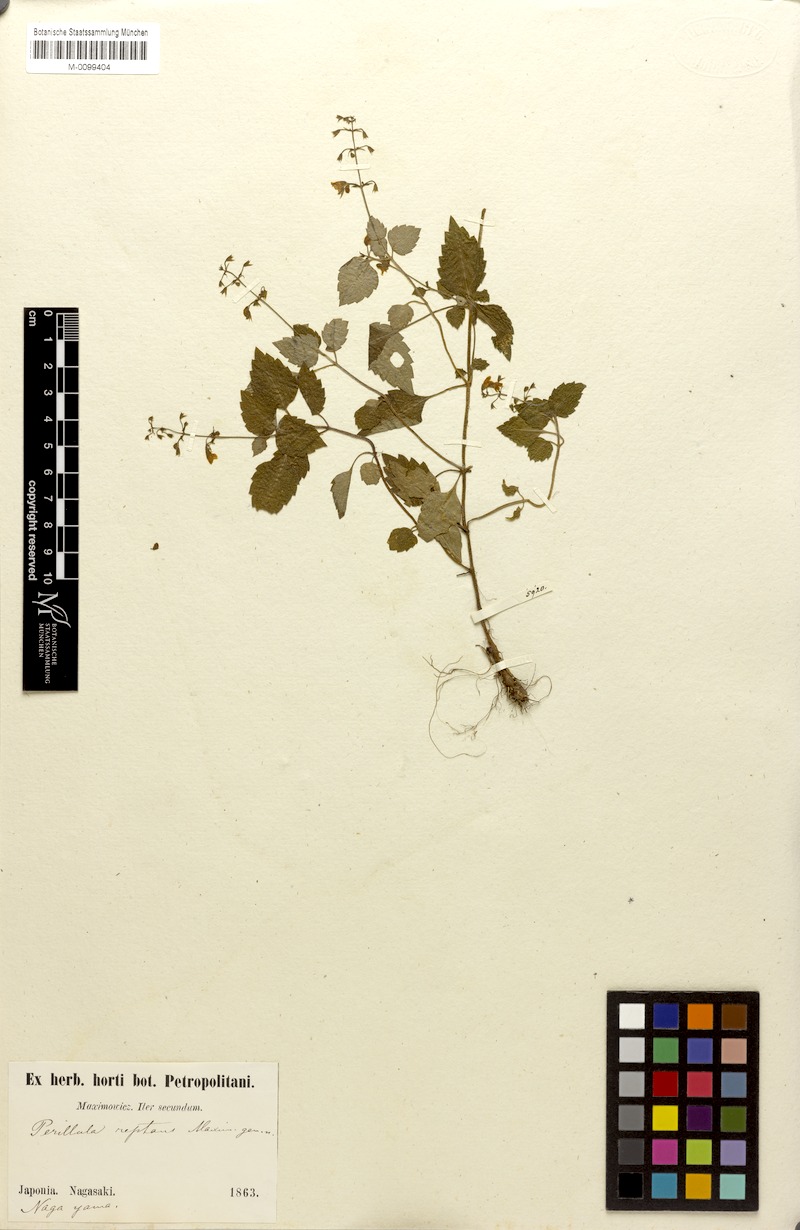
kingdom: Plantae
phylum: Tracheophyta
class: Magnoliopsida
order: Lamiales
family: Lamiaceae
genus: Perillula
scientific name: Perillula reptans
